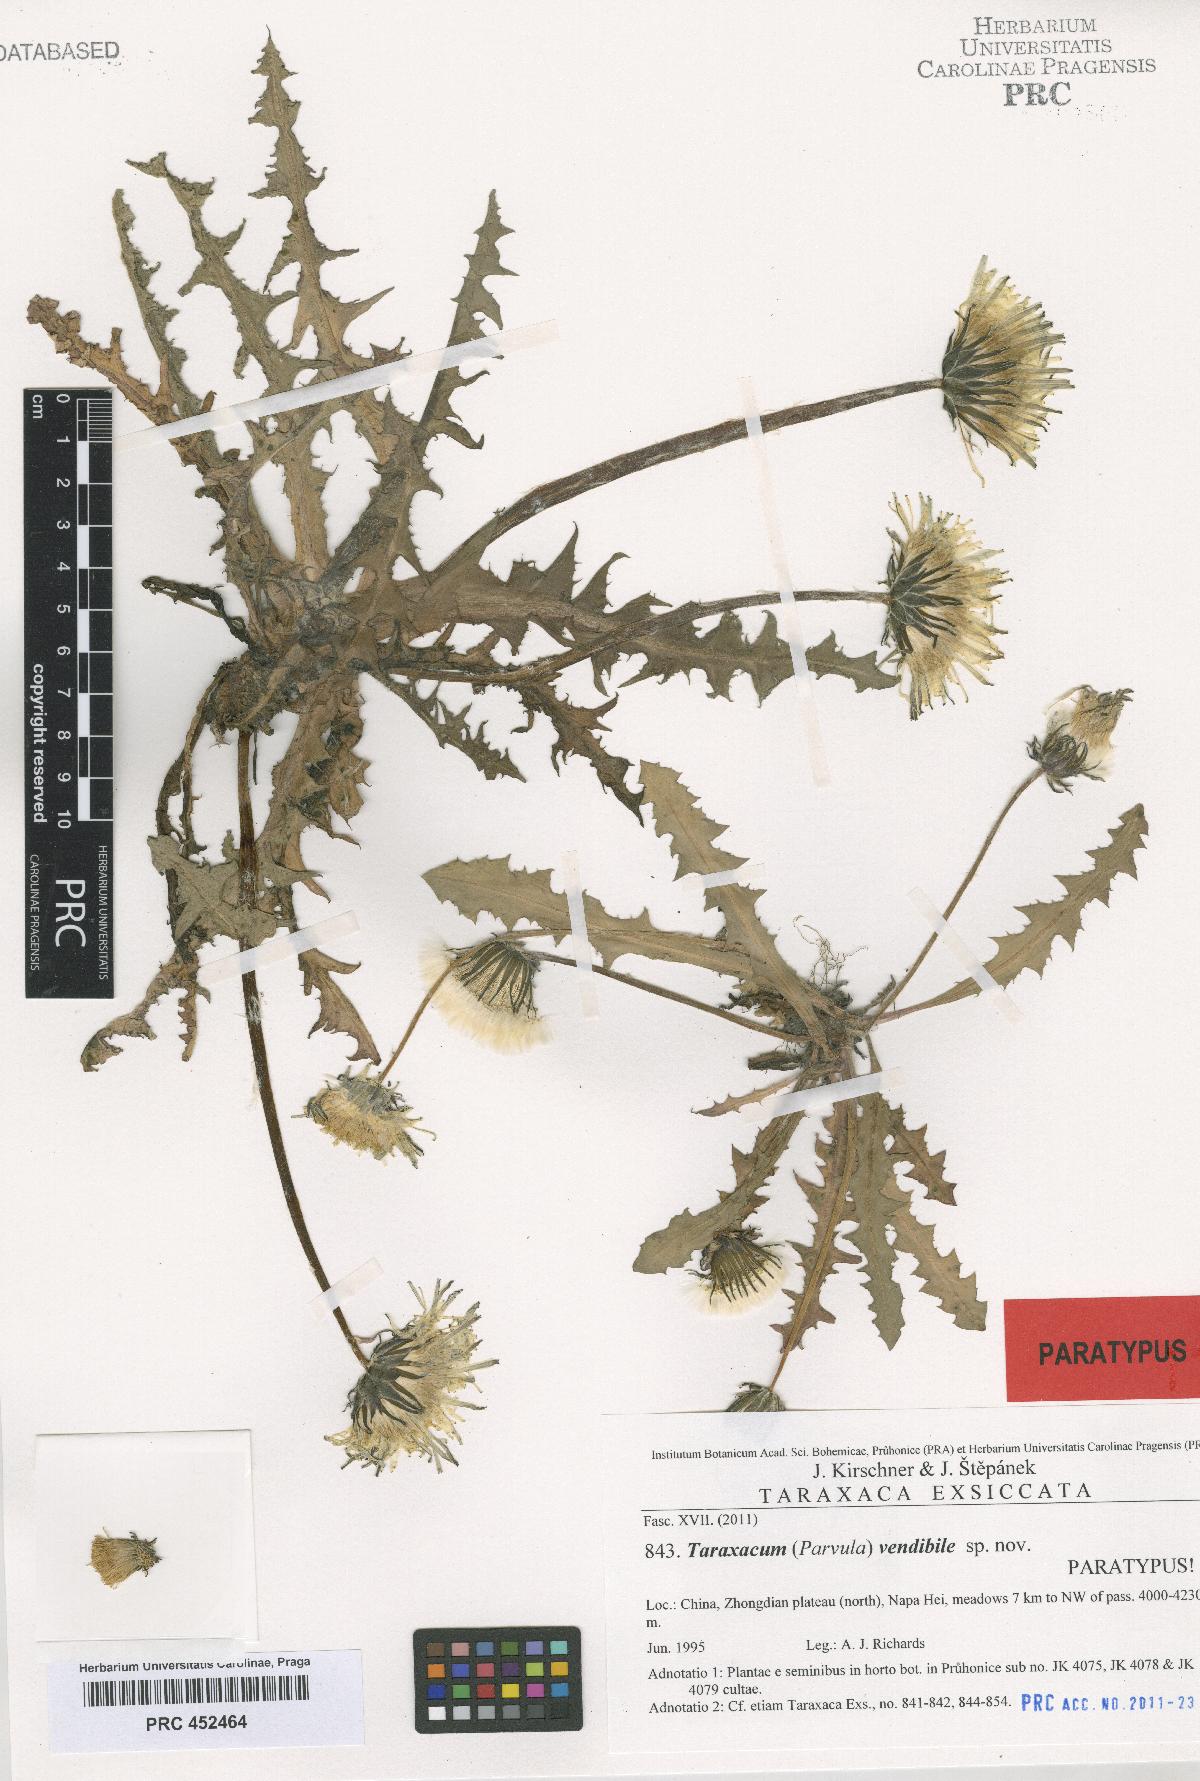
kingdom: Plantae
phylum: Tracheophyta
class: Magnoliopsida
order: Asterales
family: Asteraceae
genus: Taraxacum
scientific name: Taraxacum vendibile
